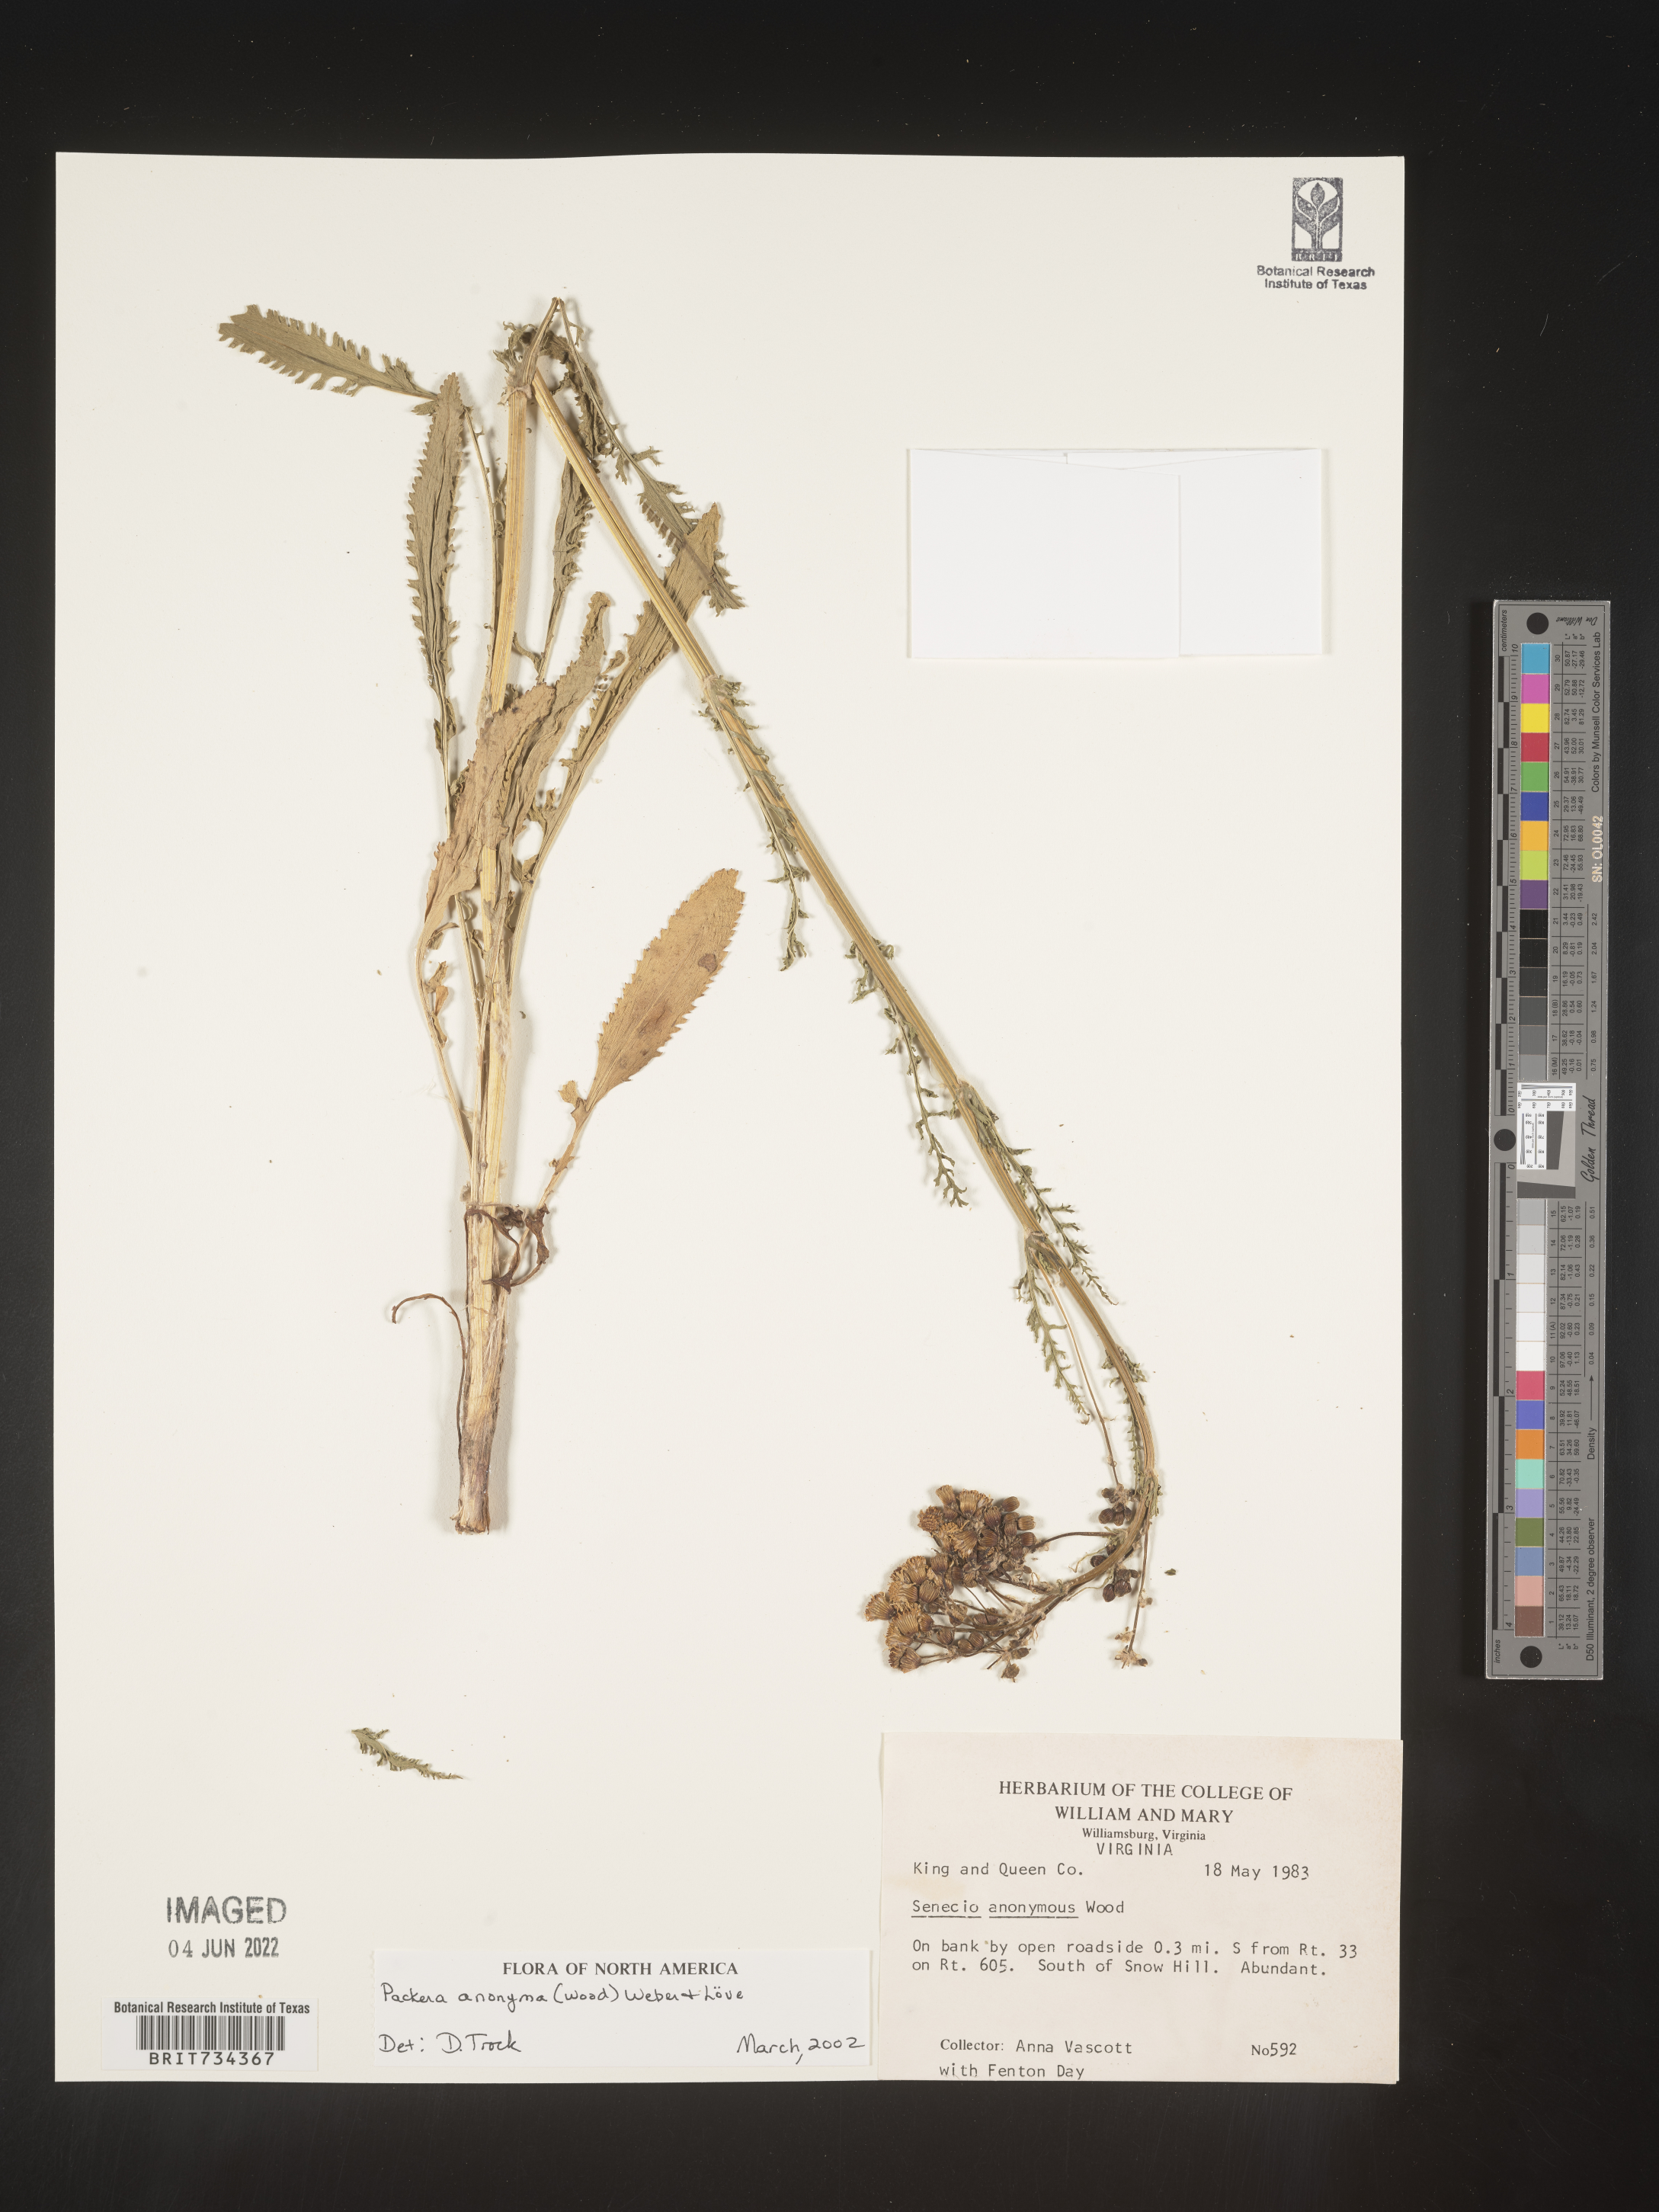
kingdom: Plantae
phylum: Tracheophyta
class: Magnoliopsida
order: Asterales
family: Asteraceae
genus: Packera
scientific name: Packera anonyma
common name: Small ragwort
